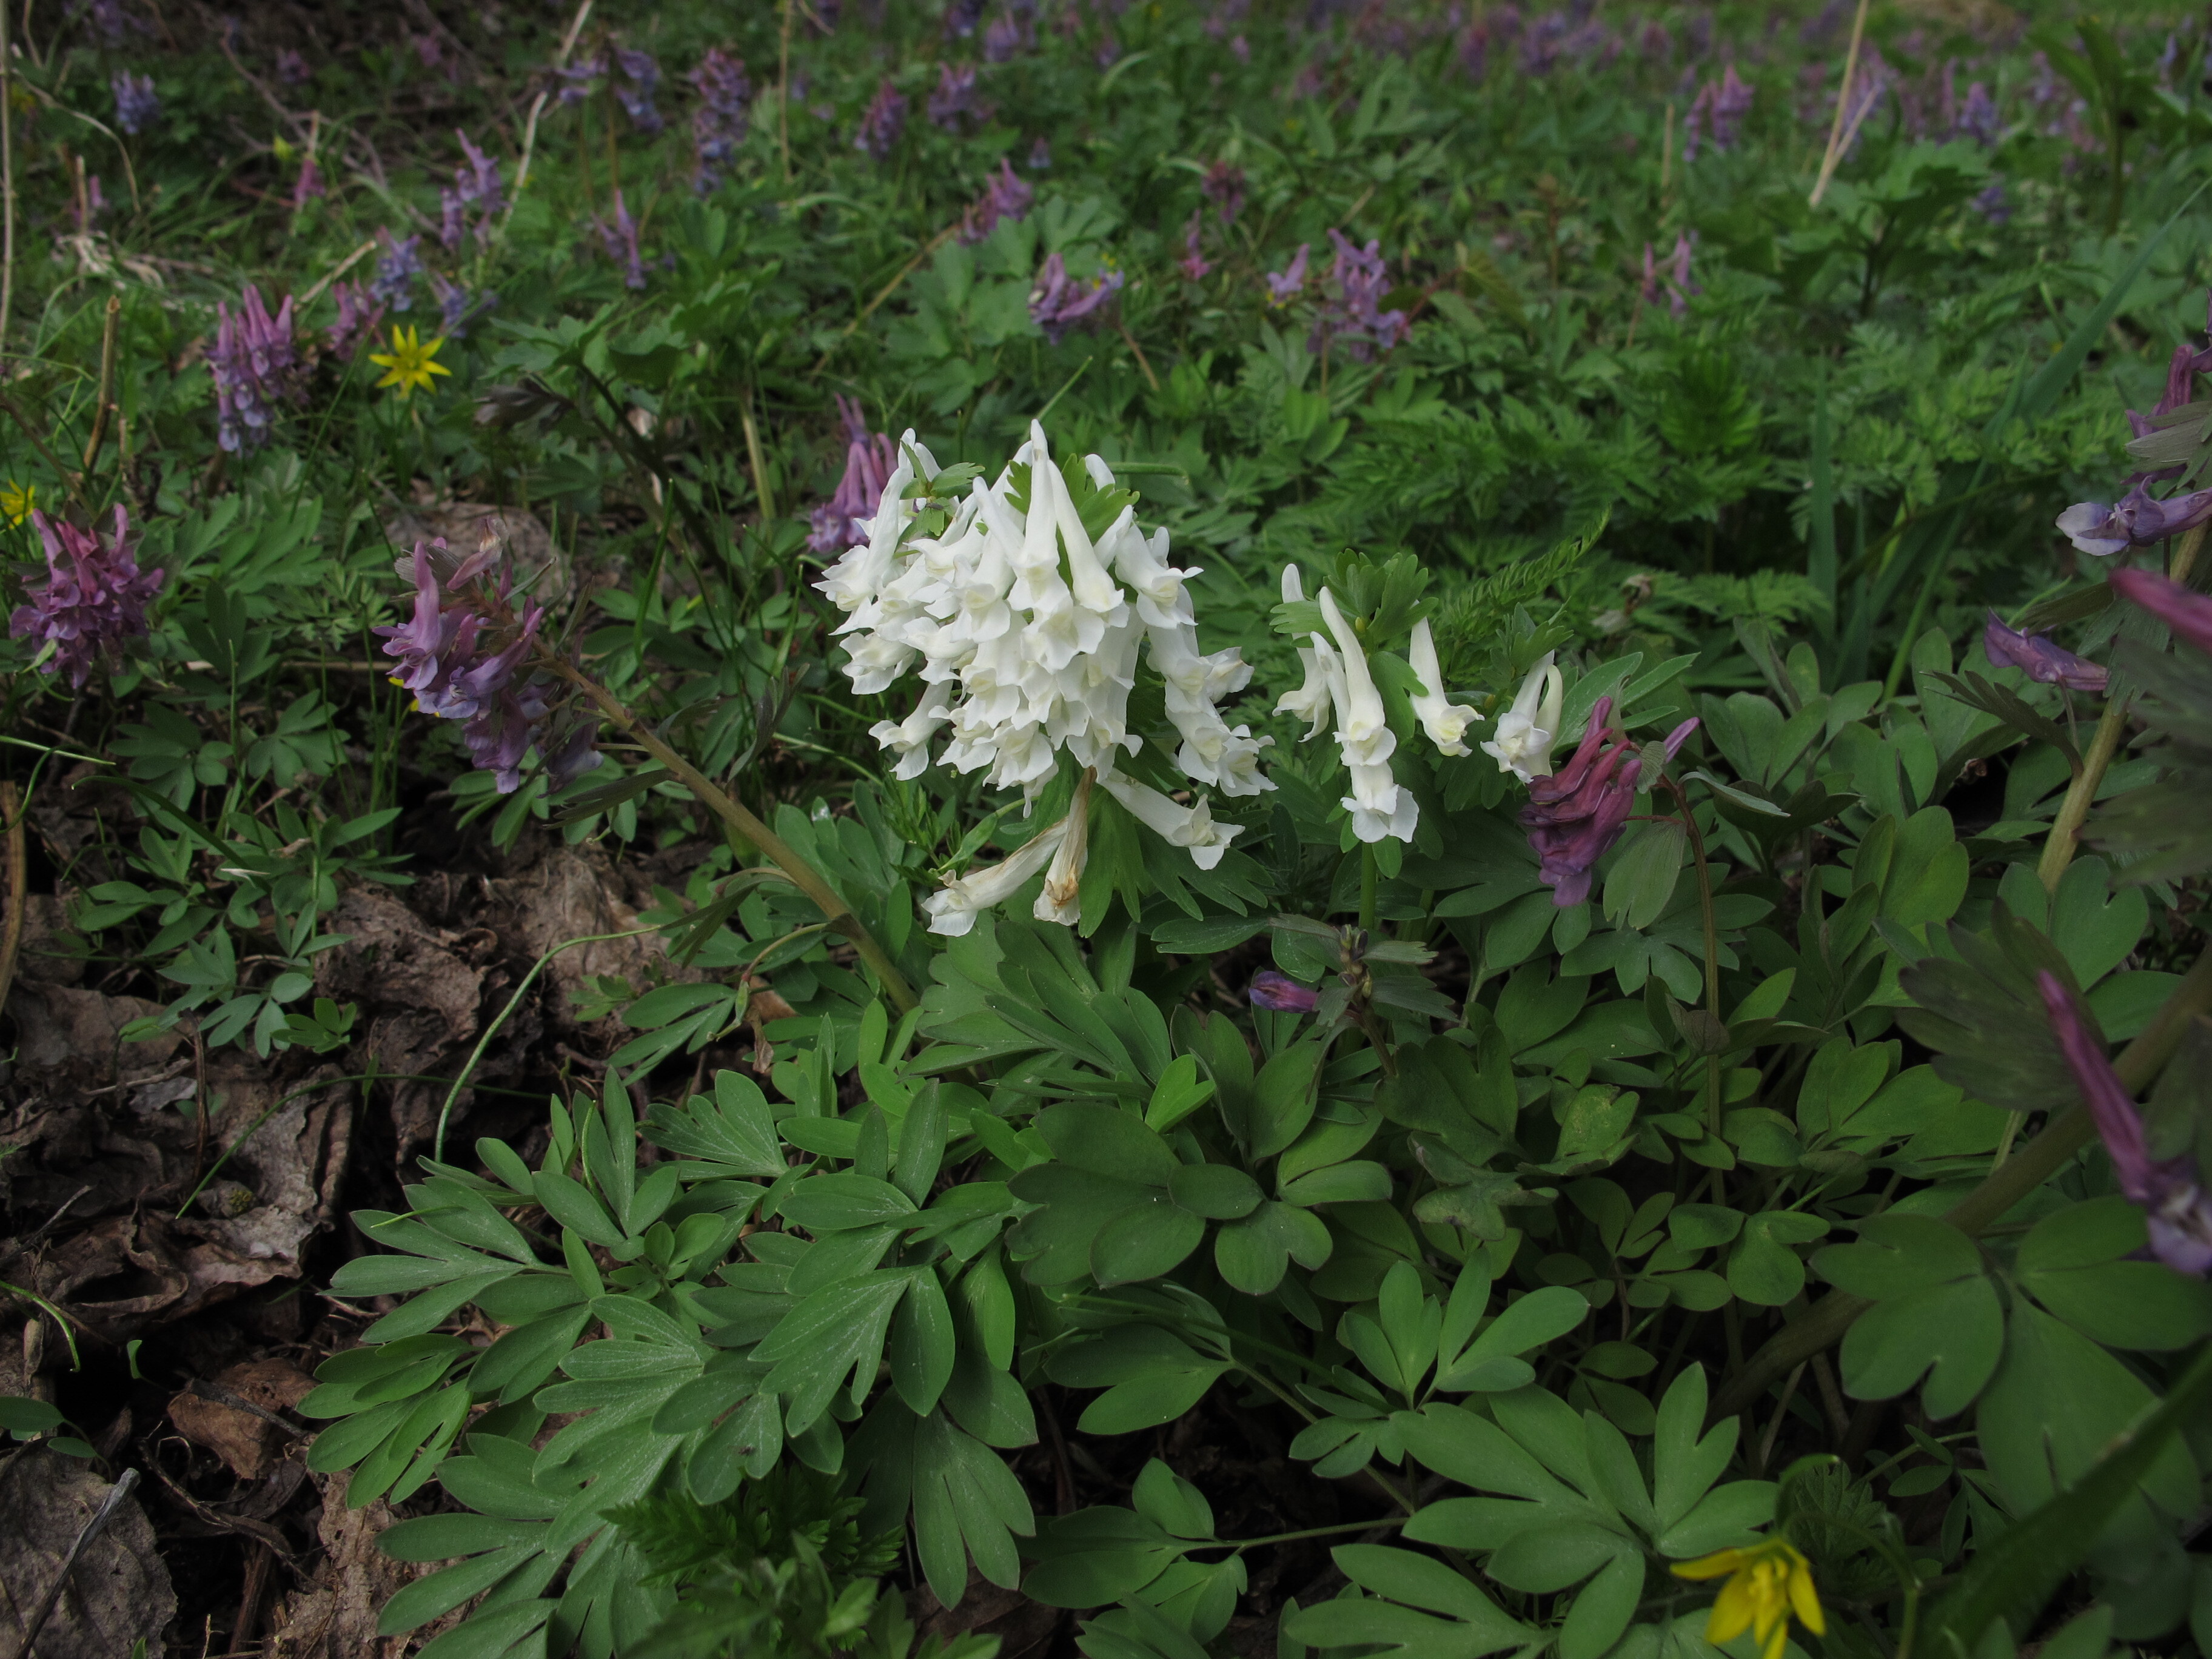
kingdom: Plantae
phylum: Tracheophyta
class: Magnoliopsida
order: Ranunculales
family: Papaveraceae
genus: Corydalis
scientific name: Corydalis solida
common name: Bird-in-a-bush
